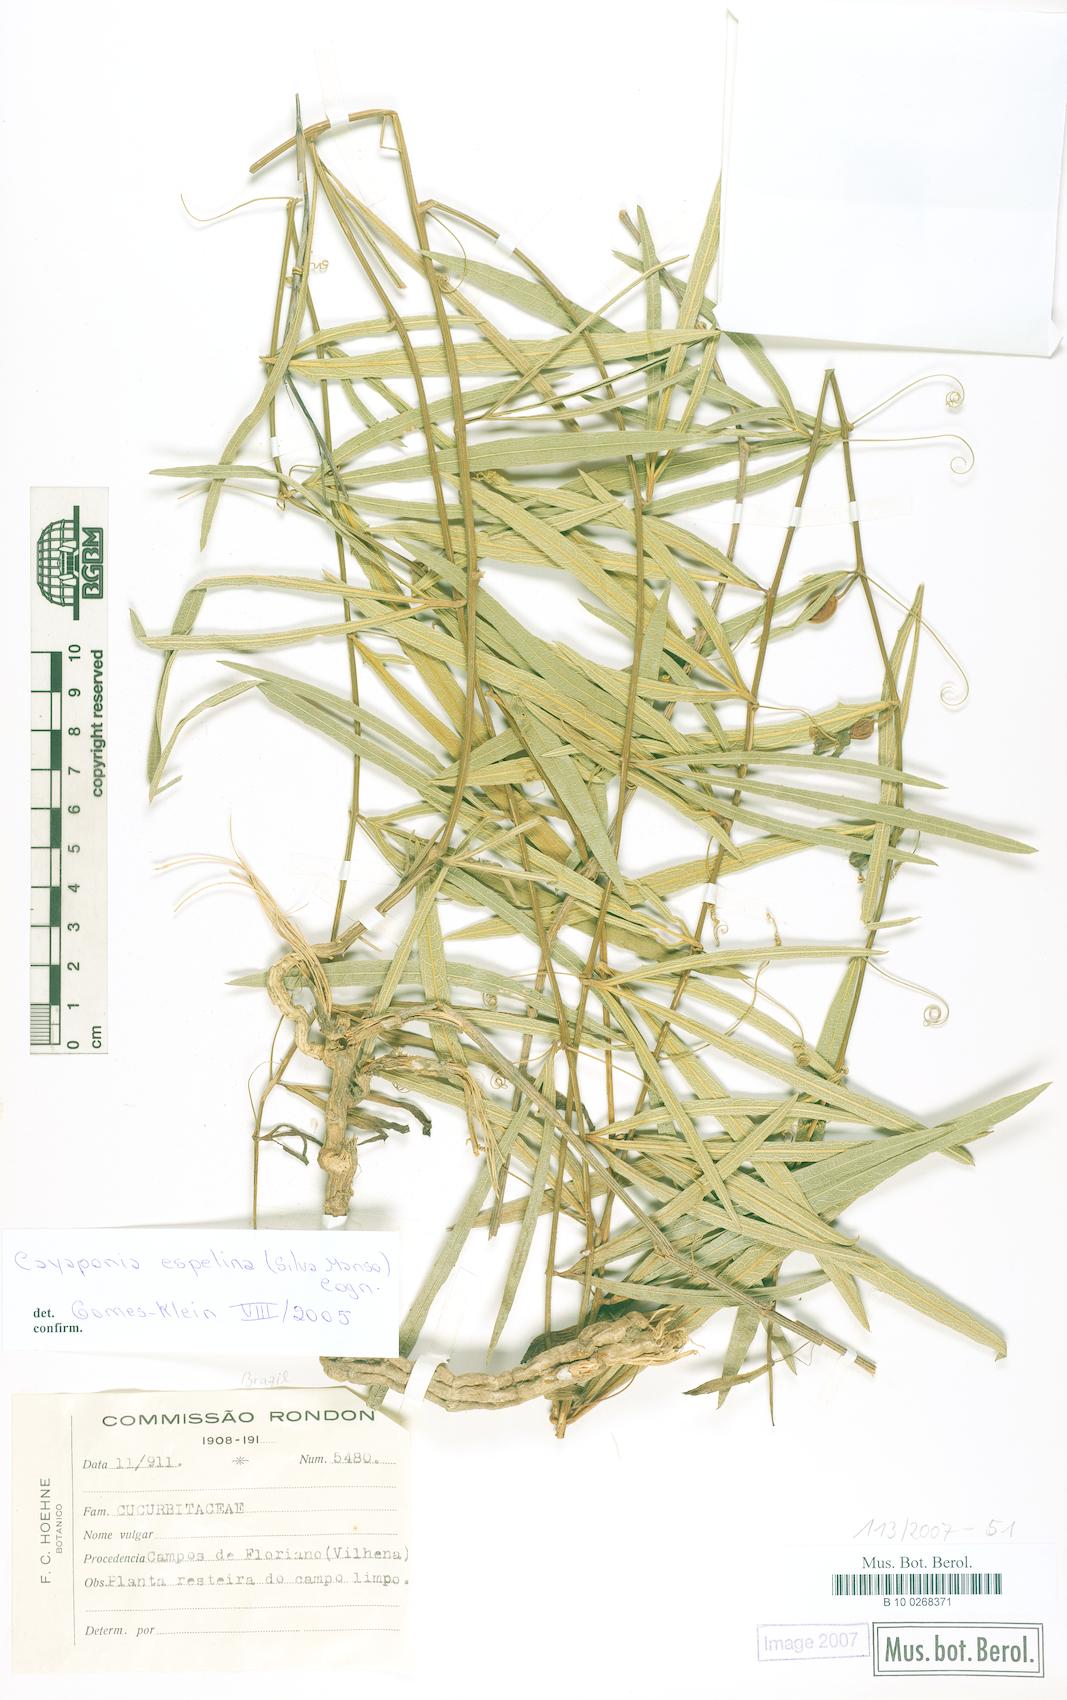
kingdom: Plantae
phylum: Tracheophyta
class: Magnoliopsida
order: Cucurbitales
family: Cucurbitaceae
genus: Cayaponia
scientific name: Cayaponia espelina
